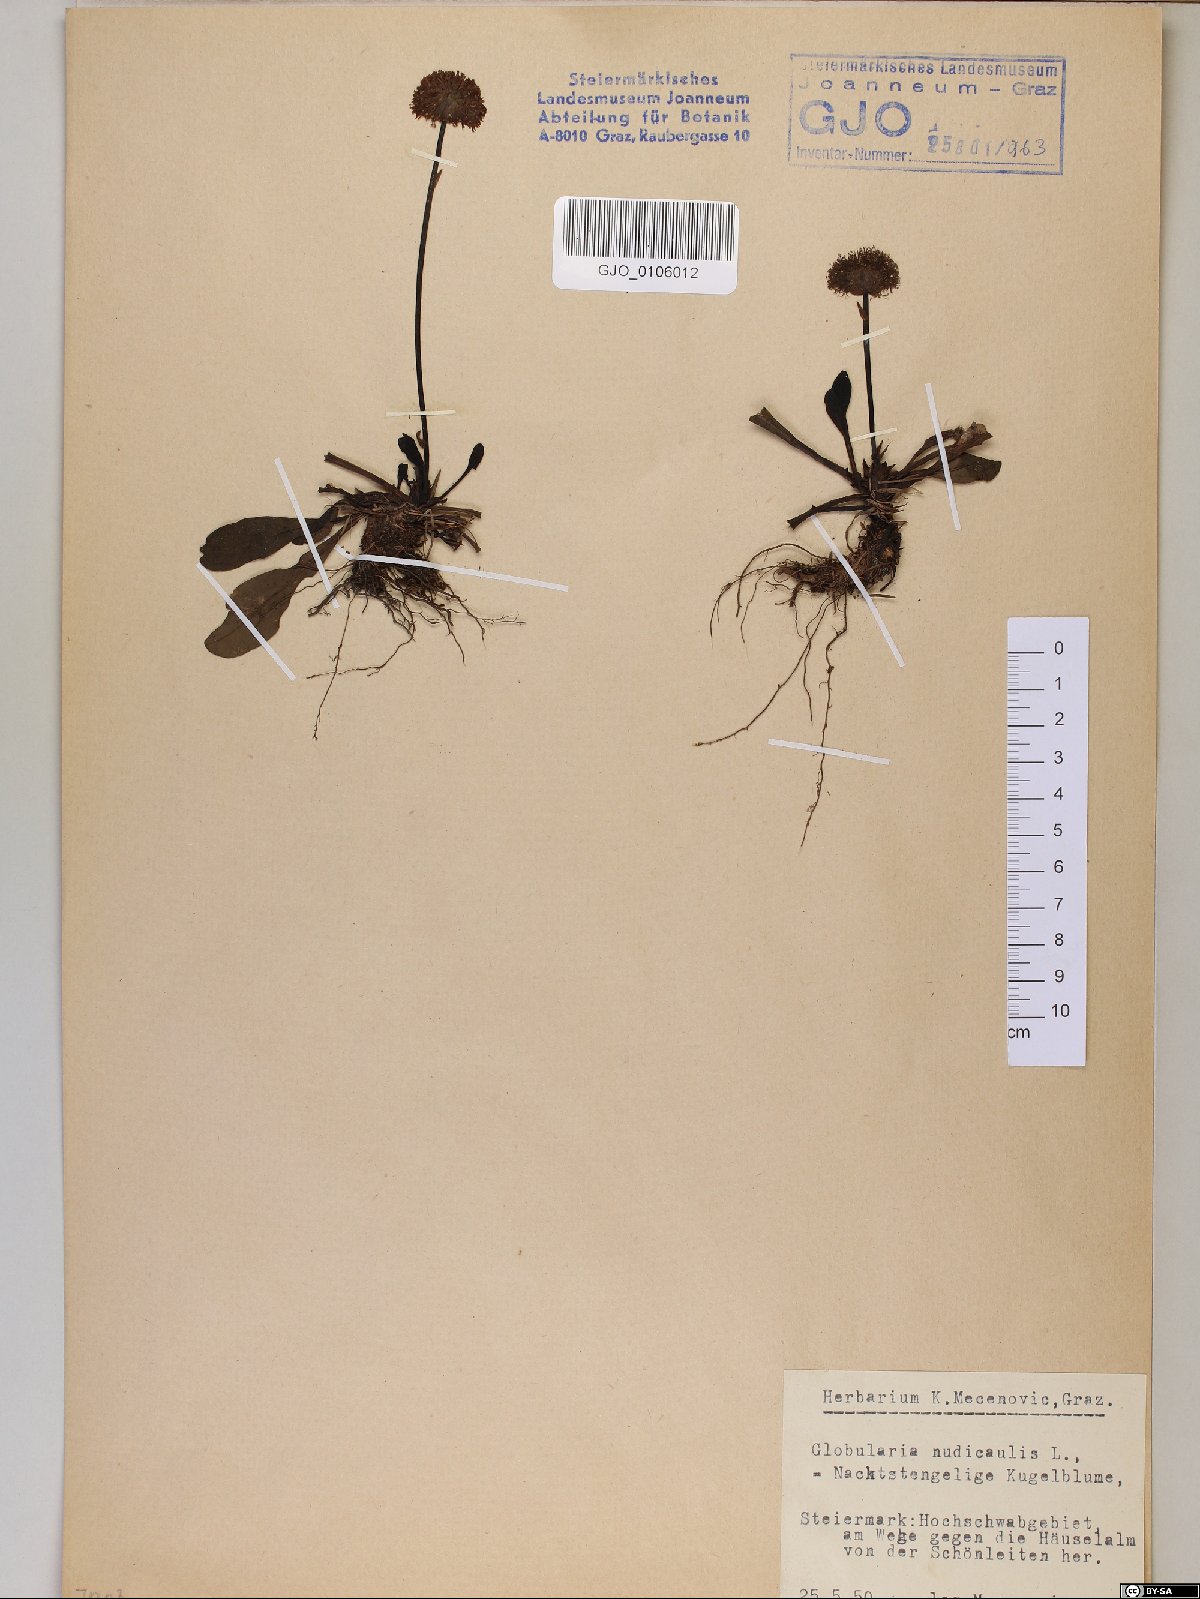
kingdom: Plantae
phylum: Tracheophyta
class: Magnoliopsida
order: Lamiales
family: Plantaginaceae
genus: Globularia
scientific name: Globularia nudicaulis
